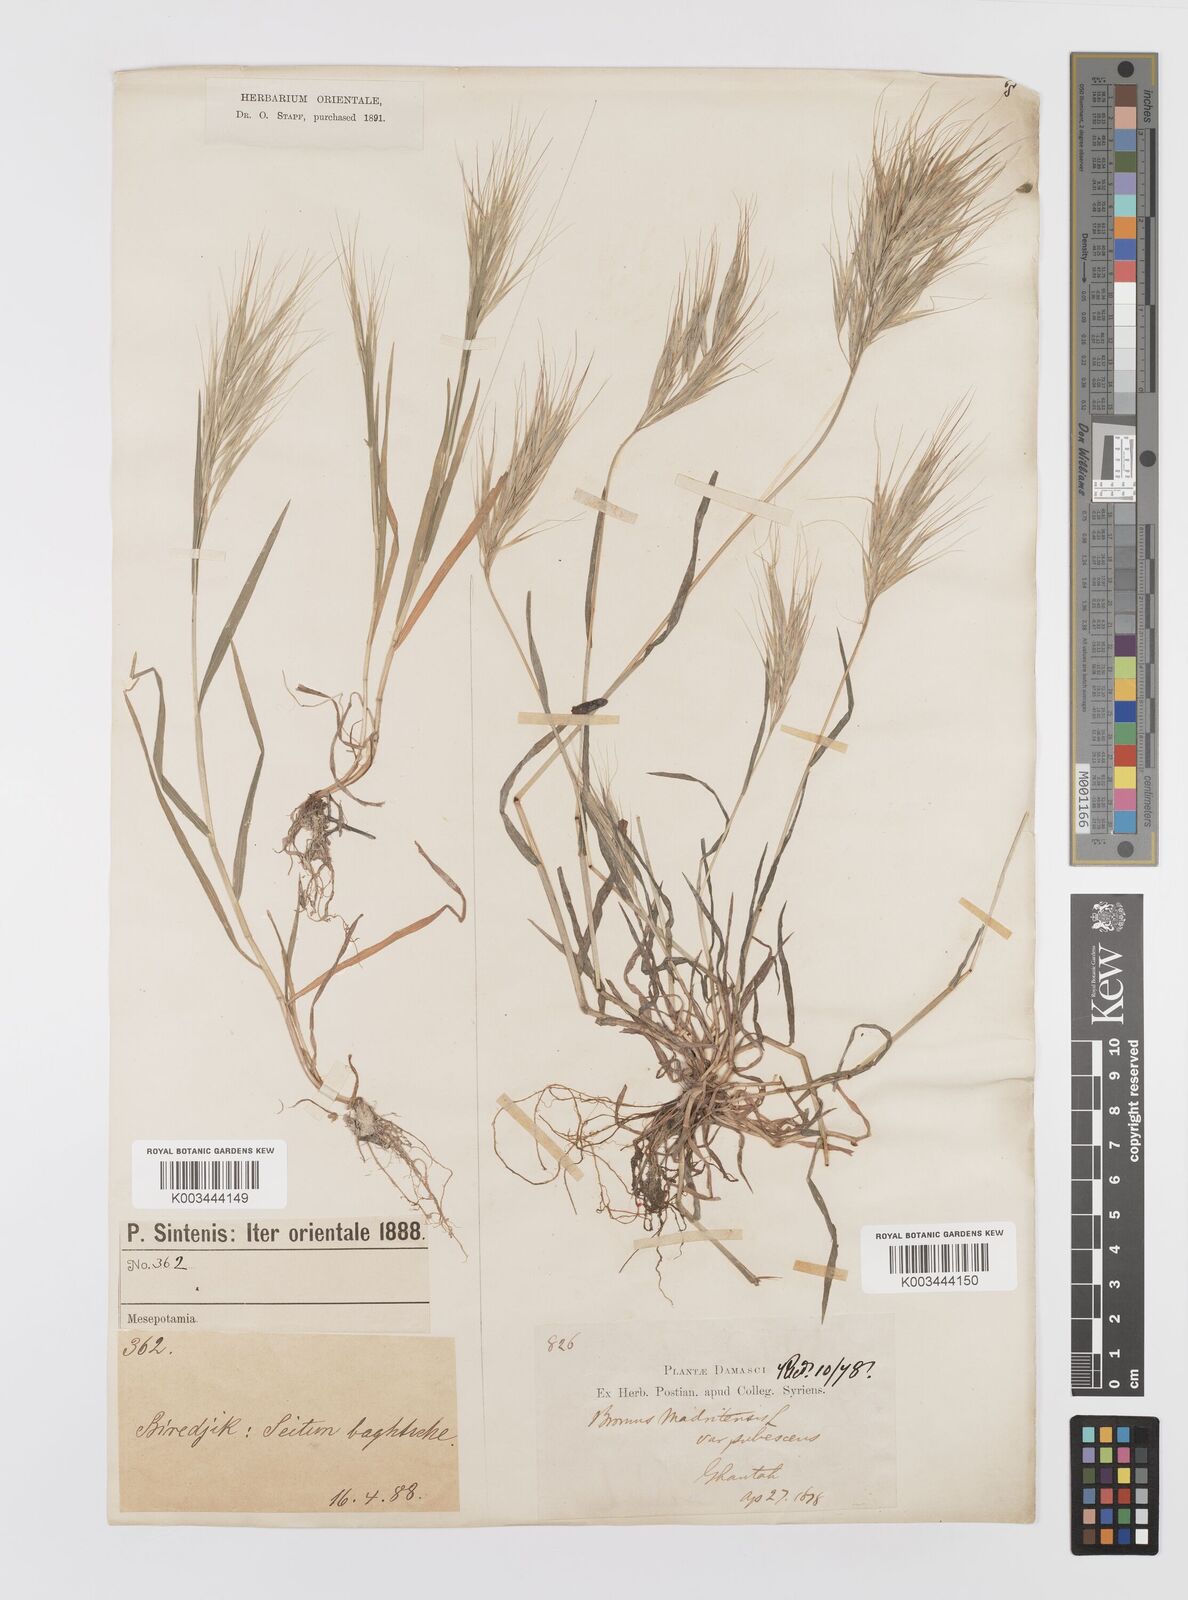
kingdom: Plantae
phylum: Tracheophyta
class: Liliopsida
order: Poales
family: Poaceae
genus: Bromus
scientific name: Bromus madritensis
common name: Compact brome
